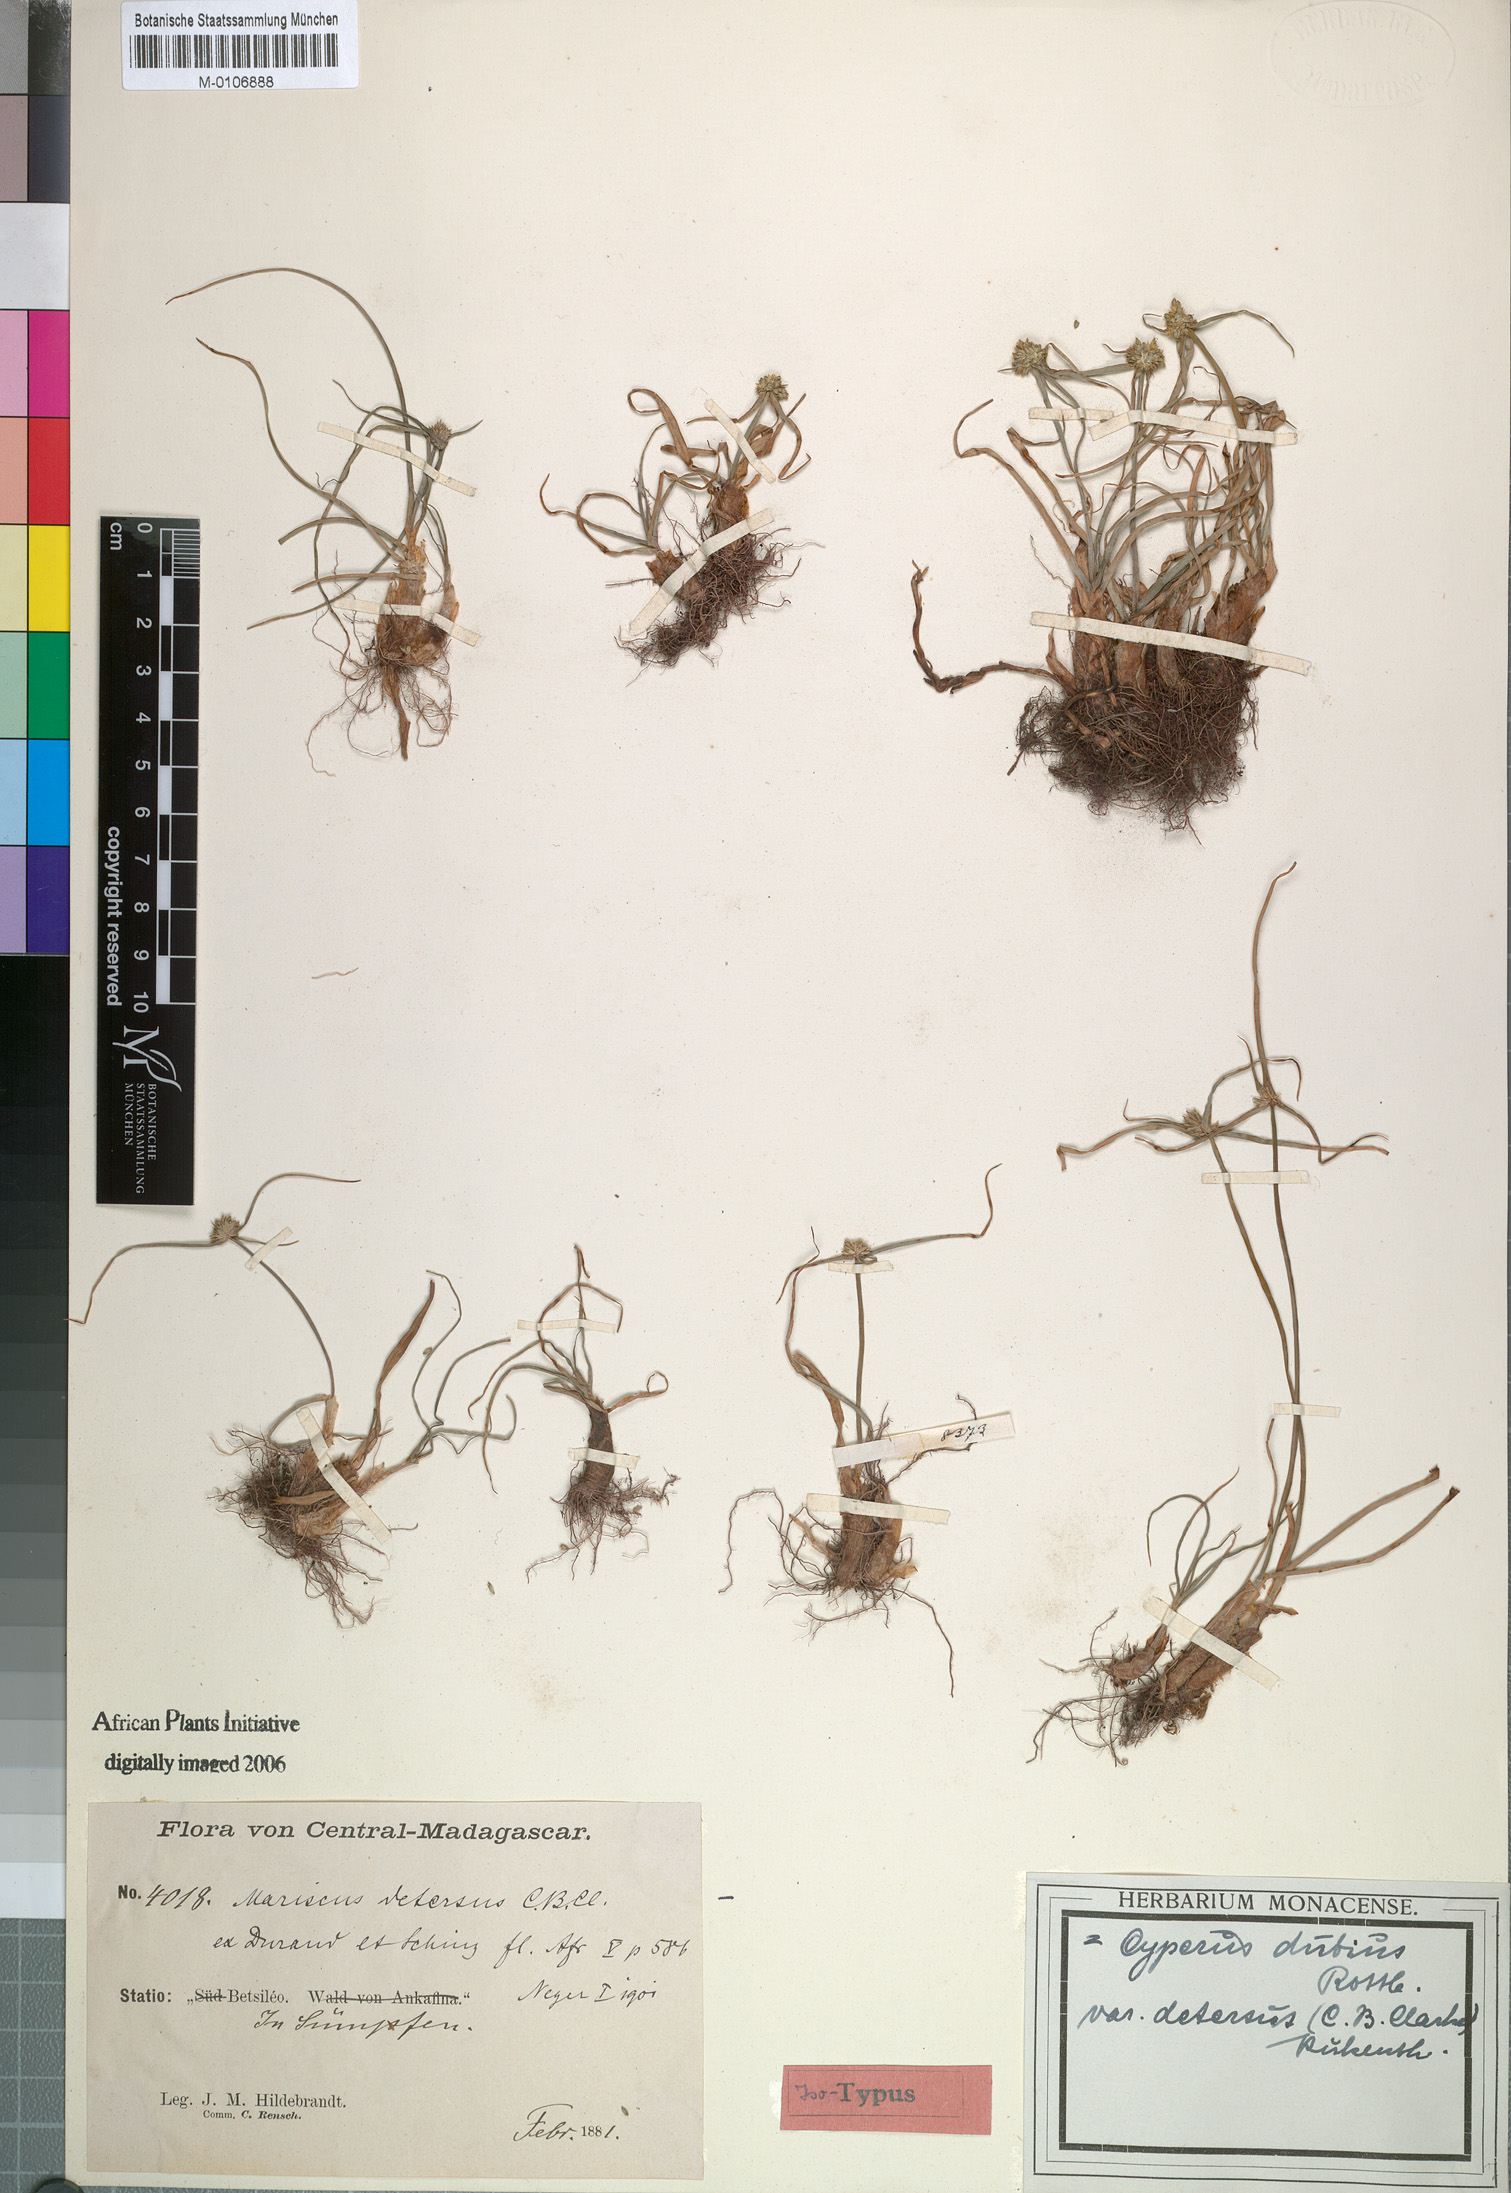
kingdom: Plantae
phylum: Tracheophyta
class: Liliopsida
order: Poales
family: Cyperaceae
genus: Cyperus
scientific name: Cyperus dubius
